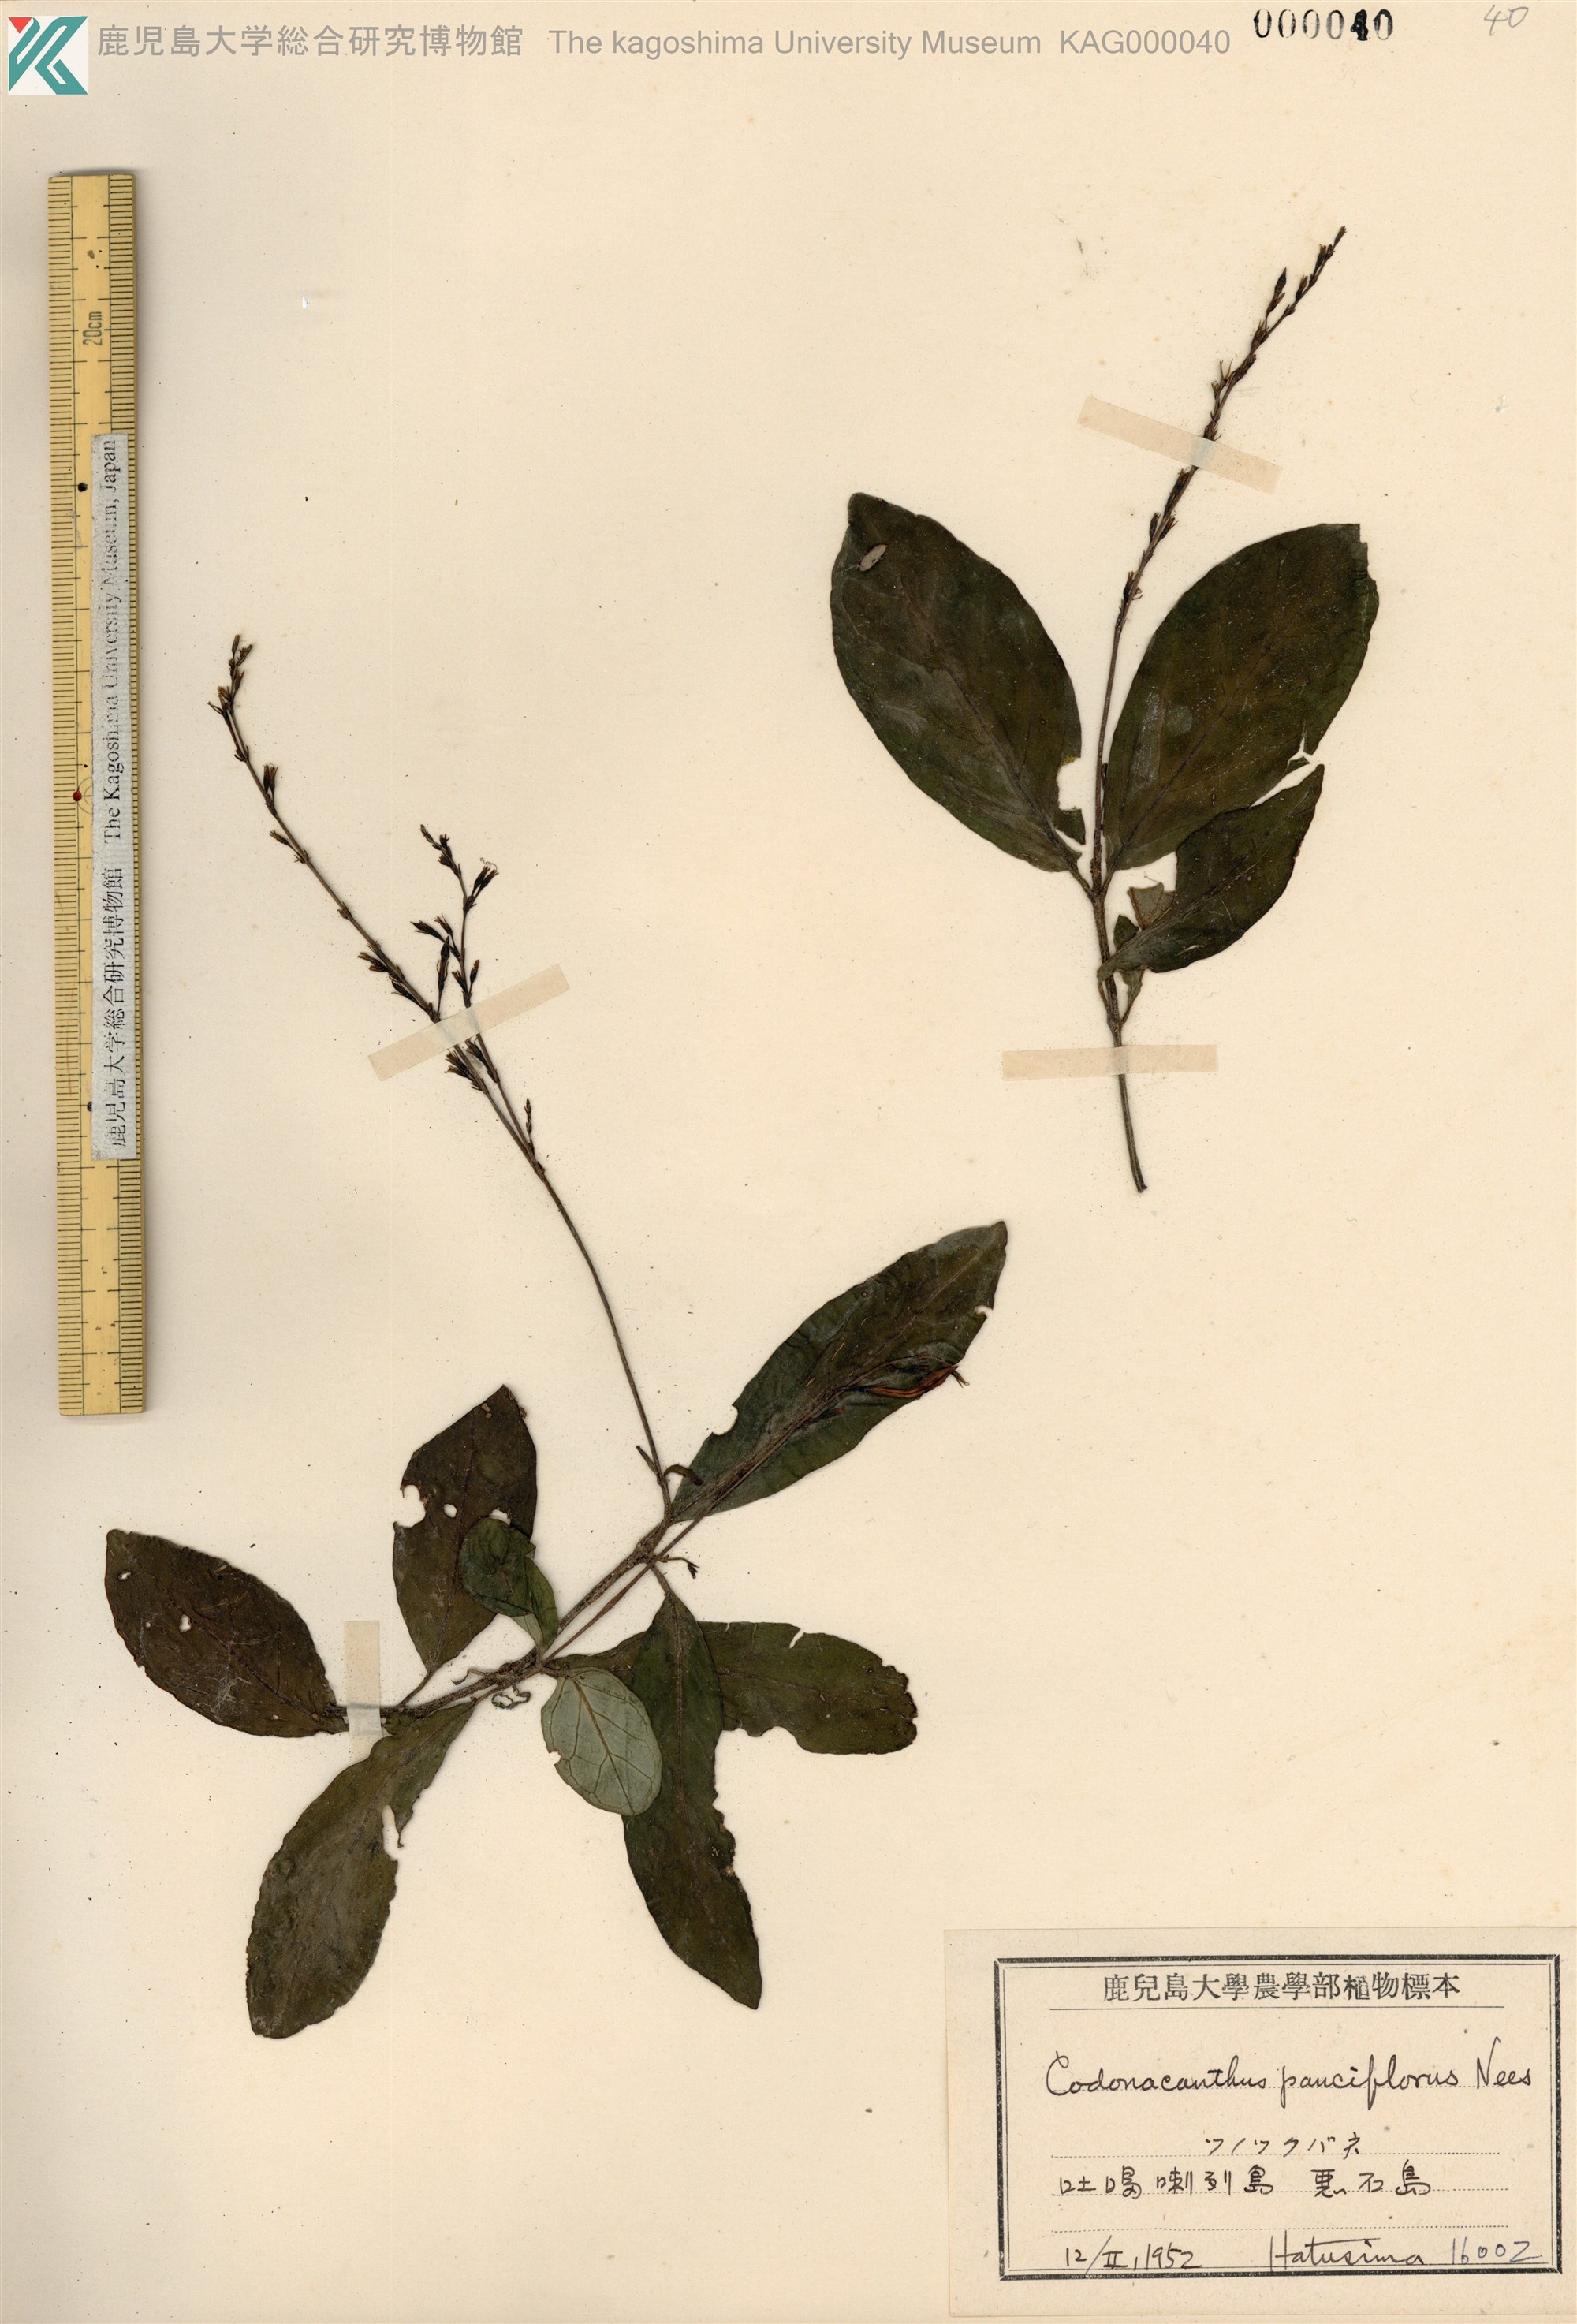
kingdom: Plantae
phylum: Tracheophyta
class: Magnoliopsida
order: Lamiales
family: Acanthaceae
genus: Codonacanthus
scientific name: Codonacanthus pauciflorus
